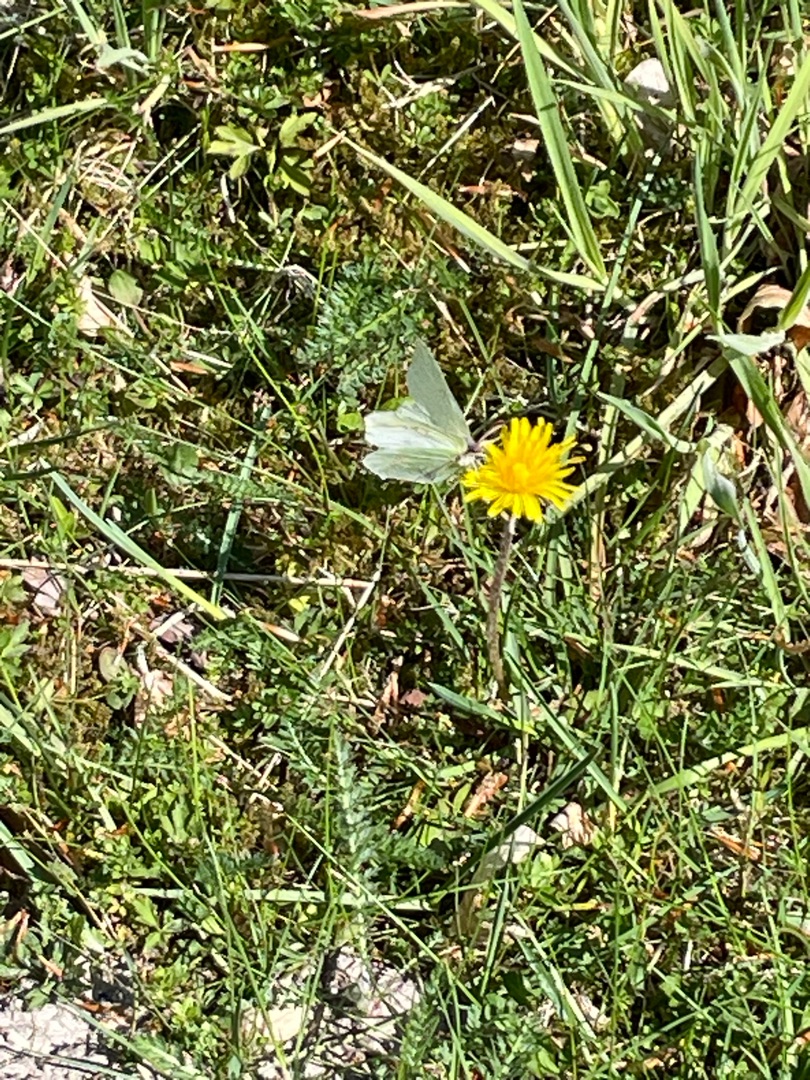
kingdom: Animalia
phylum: Arthropoda
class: Insecta
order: Lepidoptera
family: Pieridae
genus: Gonepteryx
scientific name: Gonepteryx rhamni
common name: Citronsommerfugl
